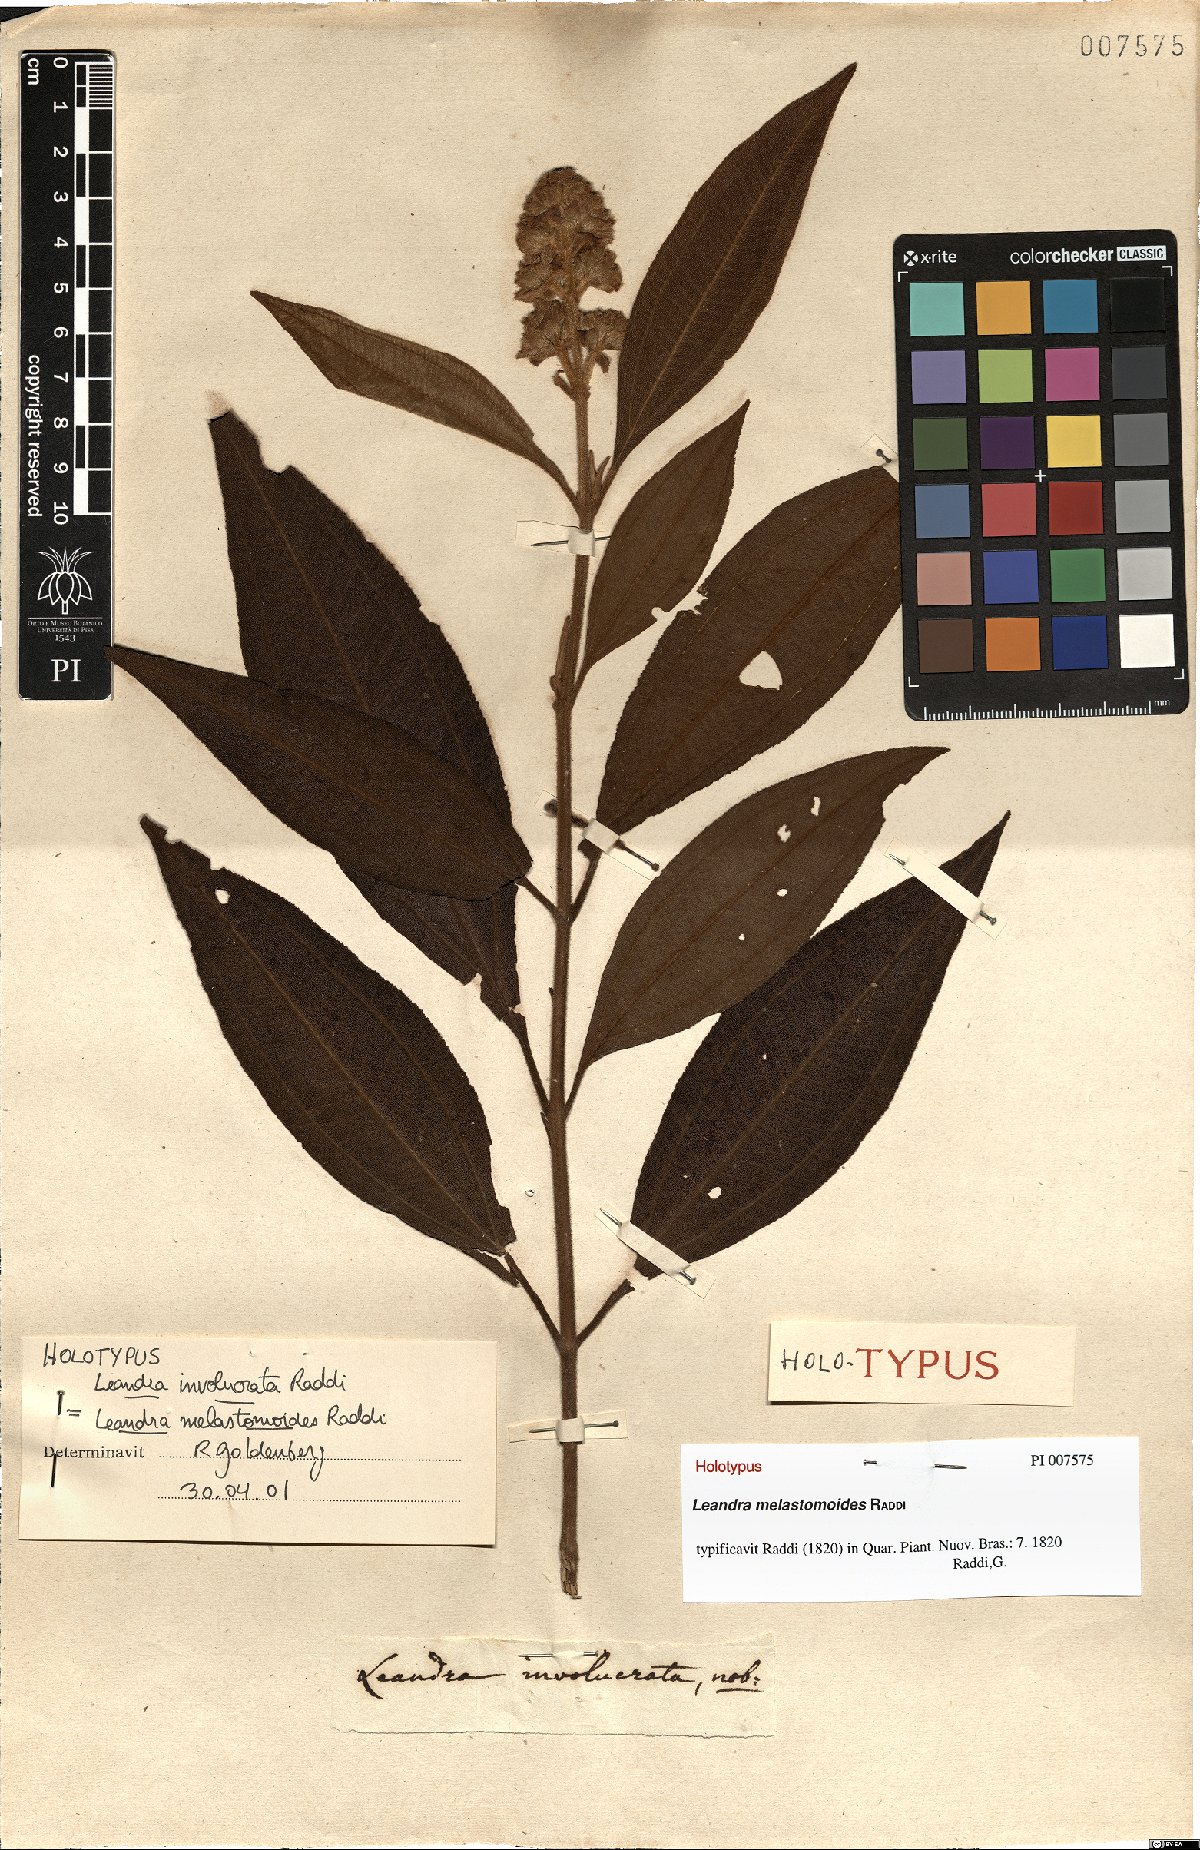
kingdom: Plantae
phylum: Tracheophyta
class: Magnoliopsida
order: Myrtales
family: Melastomataceae
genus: Miconia
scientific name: Miconia melastomoides
